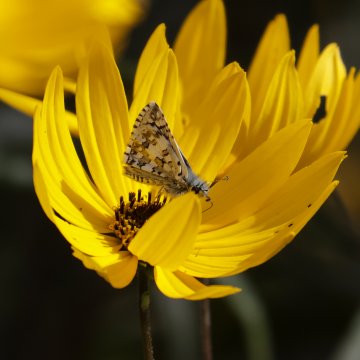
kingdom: Animalia
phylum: Arthropoda
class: Insecta
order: Lepidoptera
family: Hesperiidae
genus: Pyrgus
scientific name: Pyrgus communis
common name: Common Checkered-Skipper
